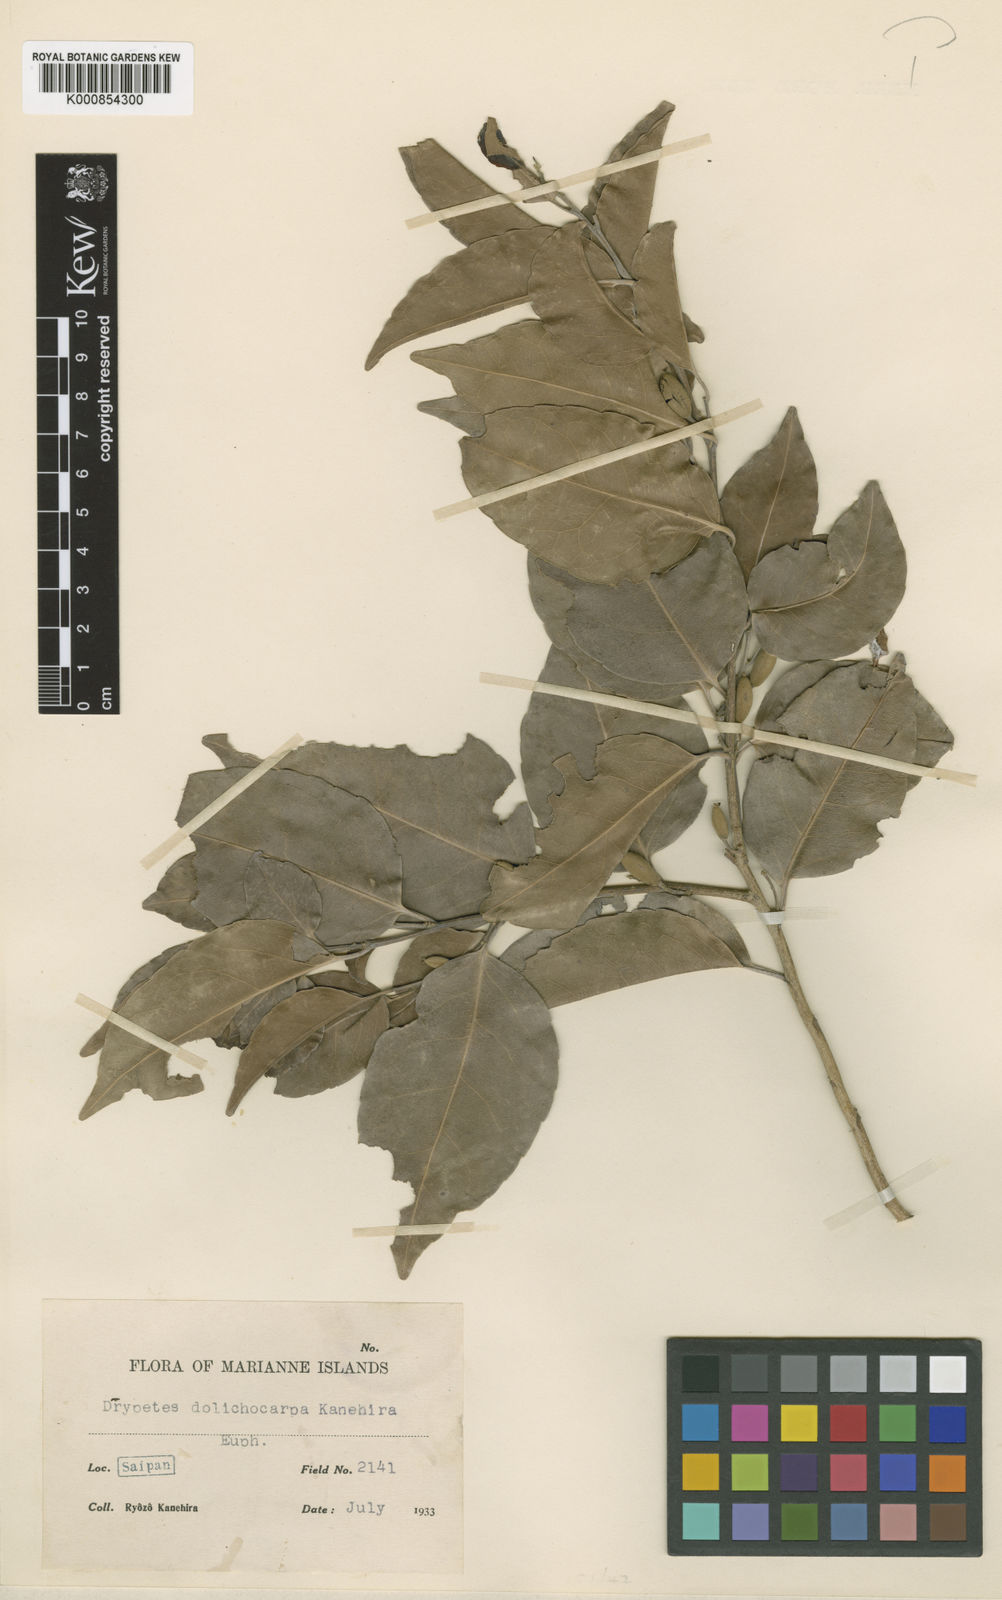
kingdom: Plantae
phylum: Tracheophyta
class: Magnoliopsida
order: Malpighiales
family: Putranjivaceae
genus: Drypetes
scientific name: Drypetes dolichocarpa
